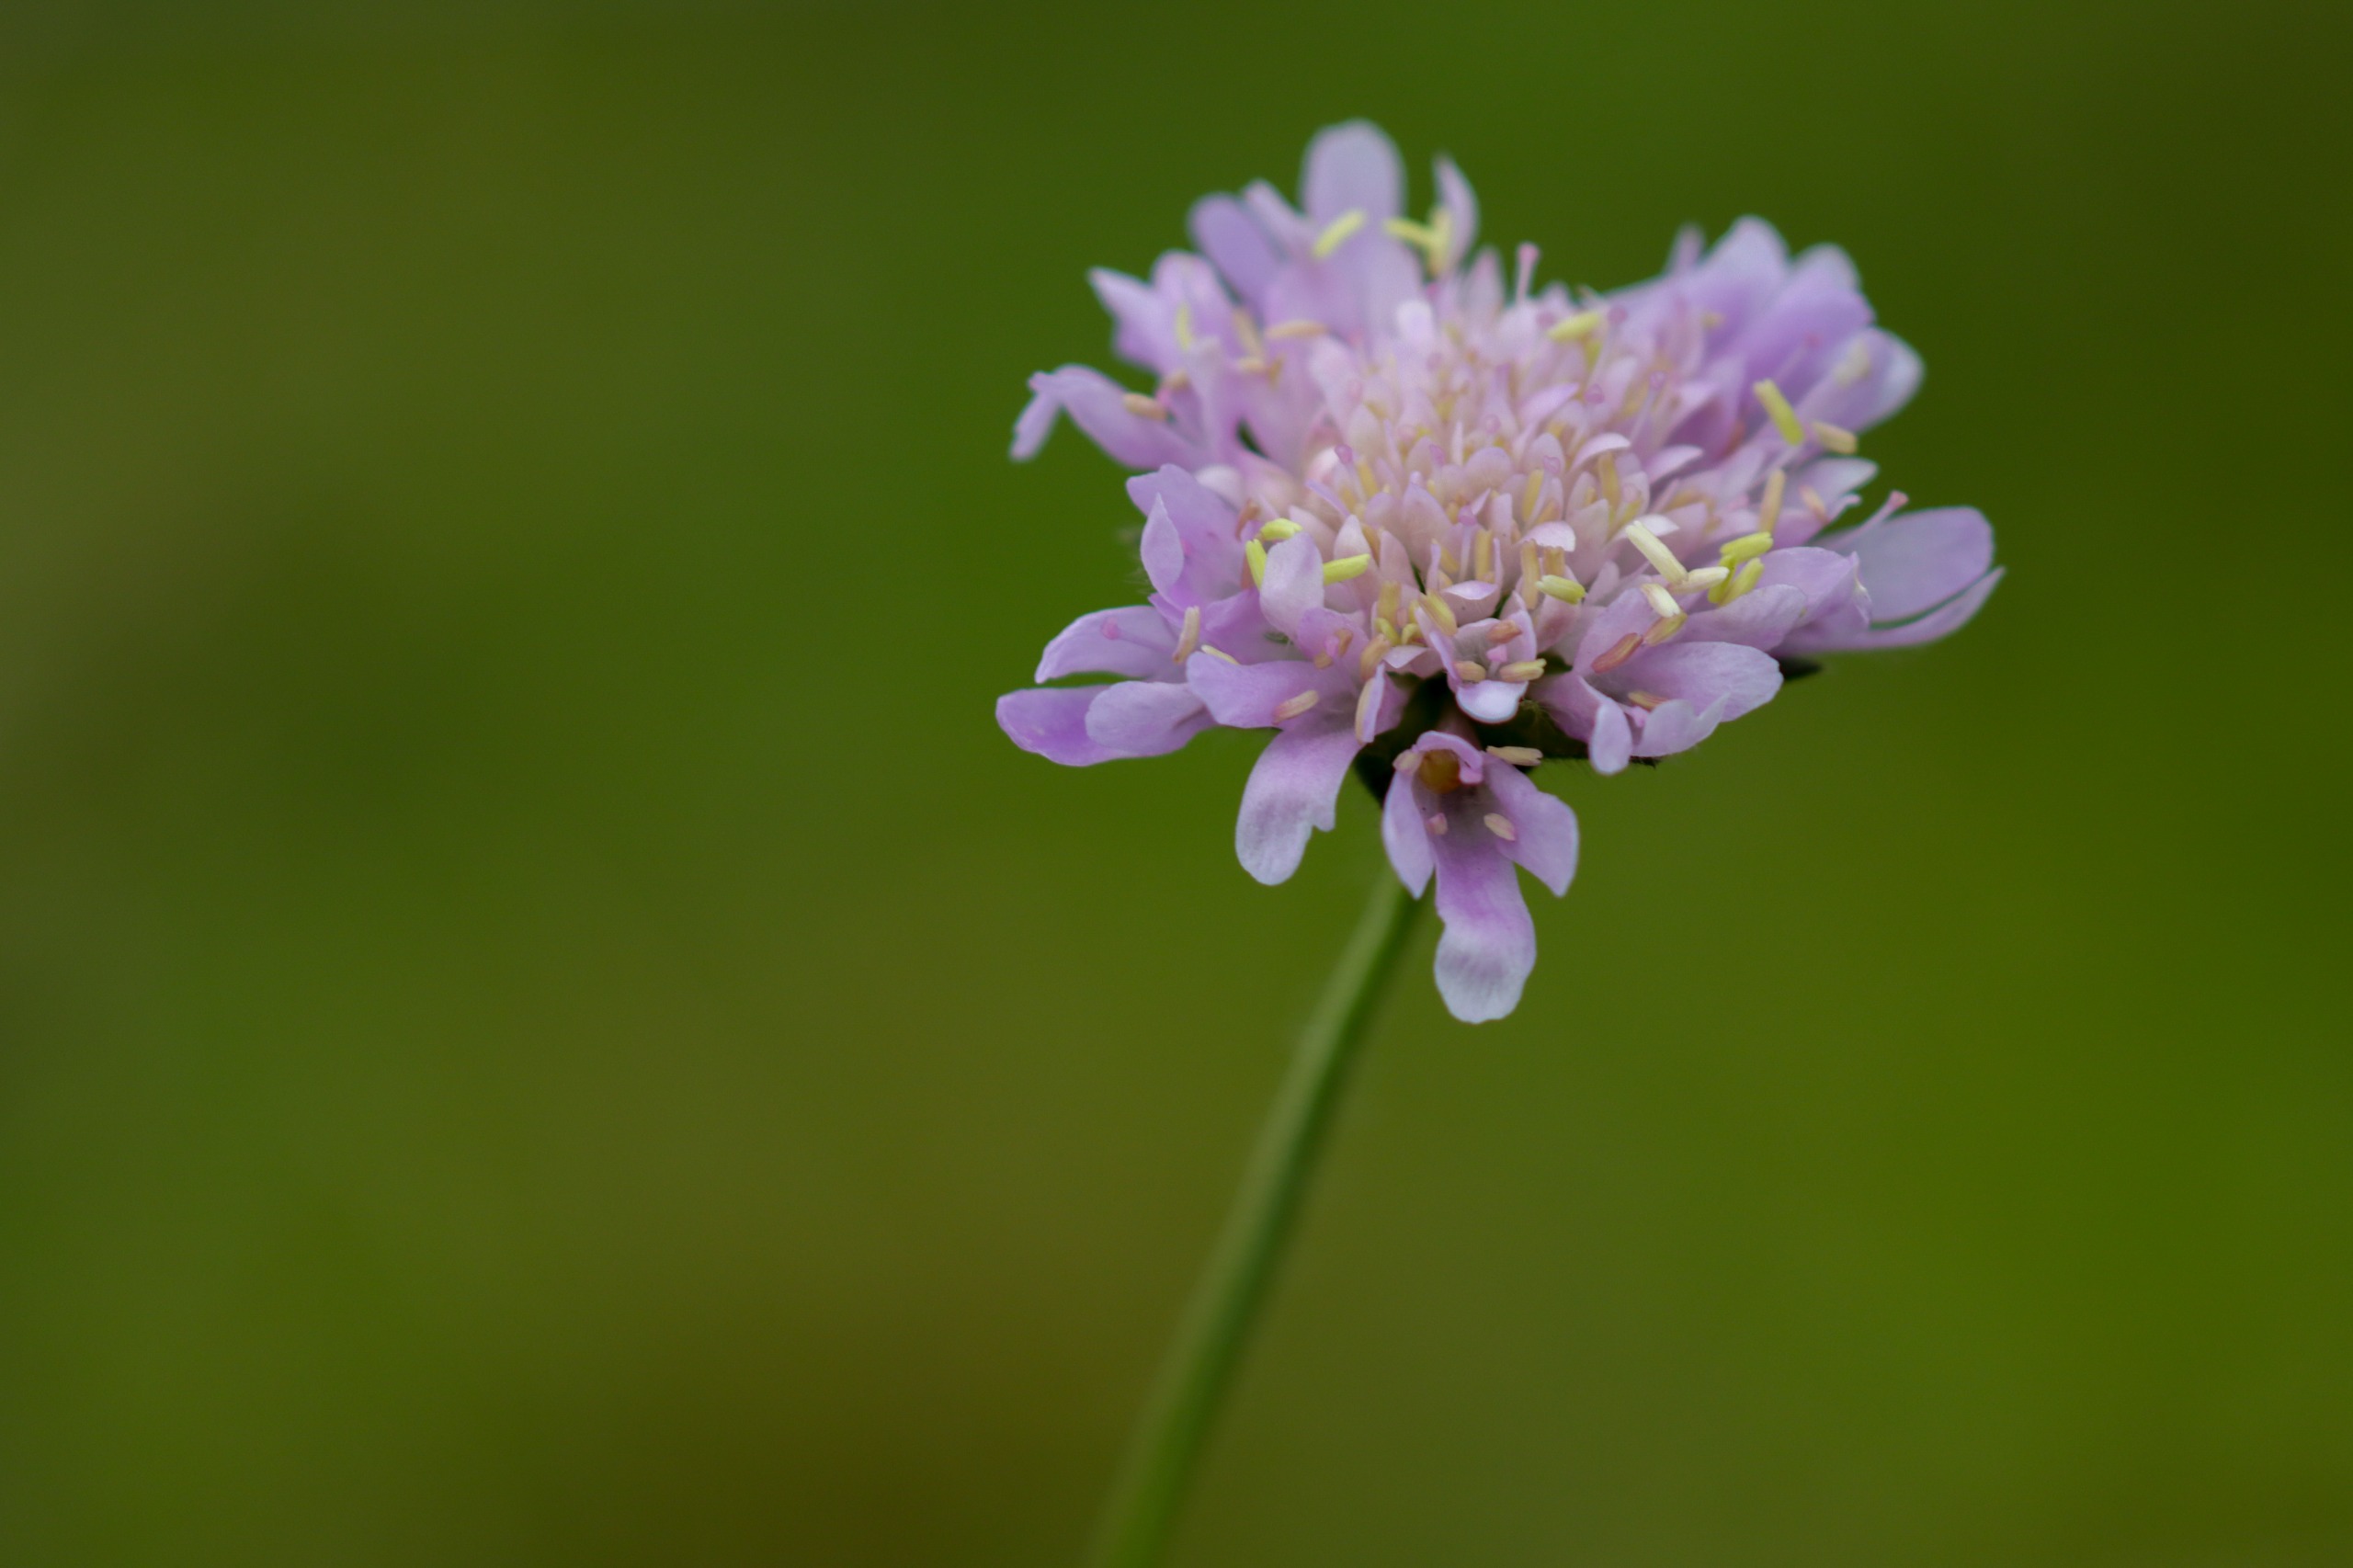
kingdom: Plantae
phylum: Tracheophyta
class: Magnoliopsida
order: Dipsacales
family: Caprifoliaceae
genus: Knautia
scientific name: Knautia arvensis
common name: Blåhat
